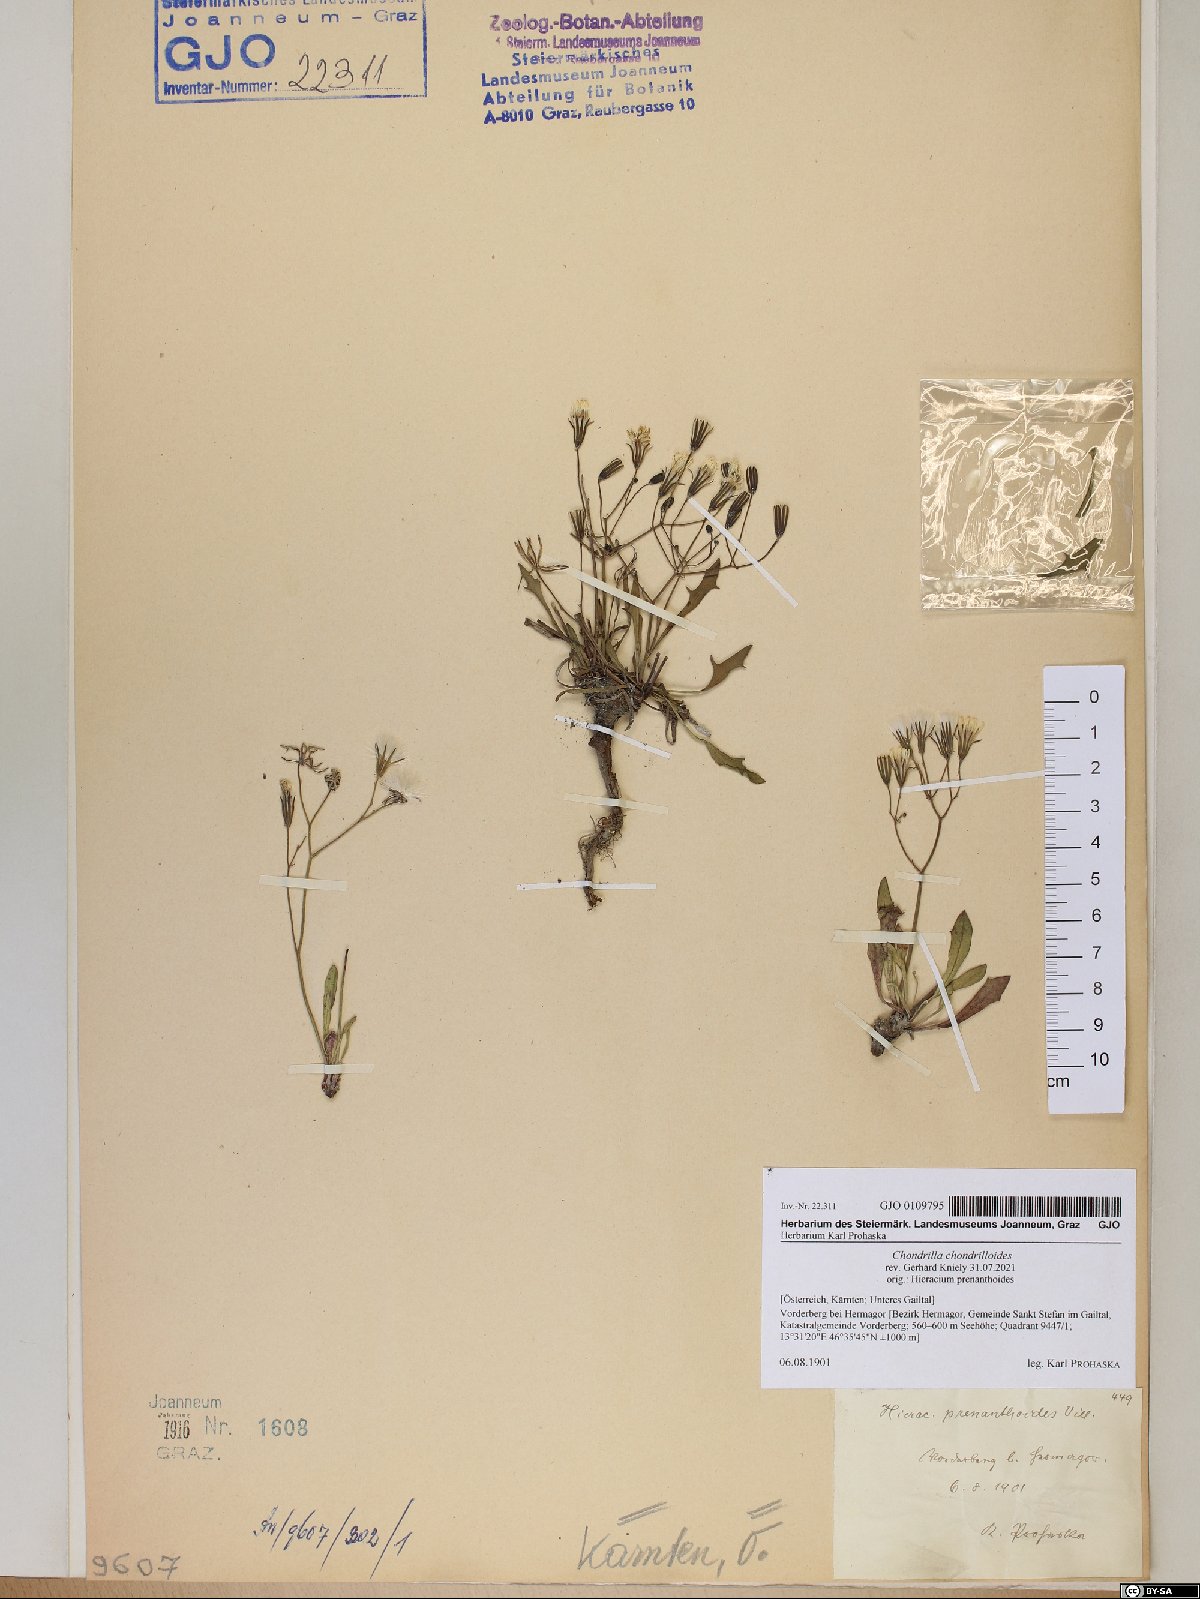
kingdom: Plantae
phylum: Tracheophyta
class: Magnoliopsida
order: Asterales
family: Asteraceae
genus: Chondrilla
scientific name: Chondrilla chondrilloides
